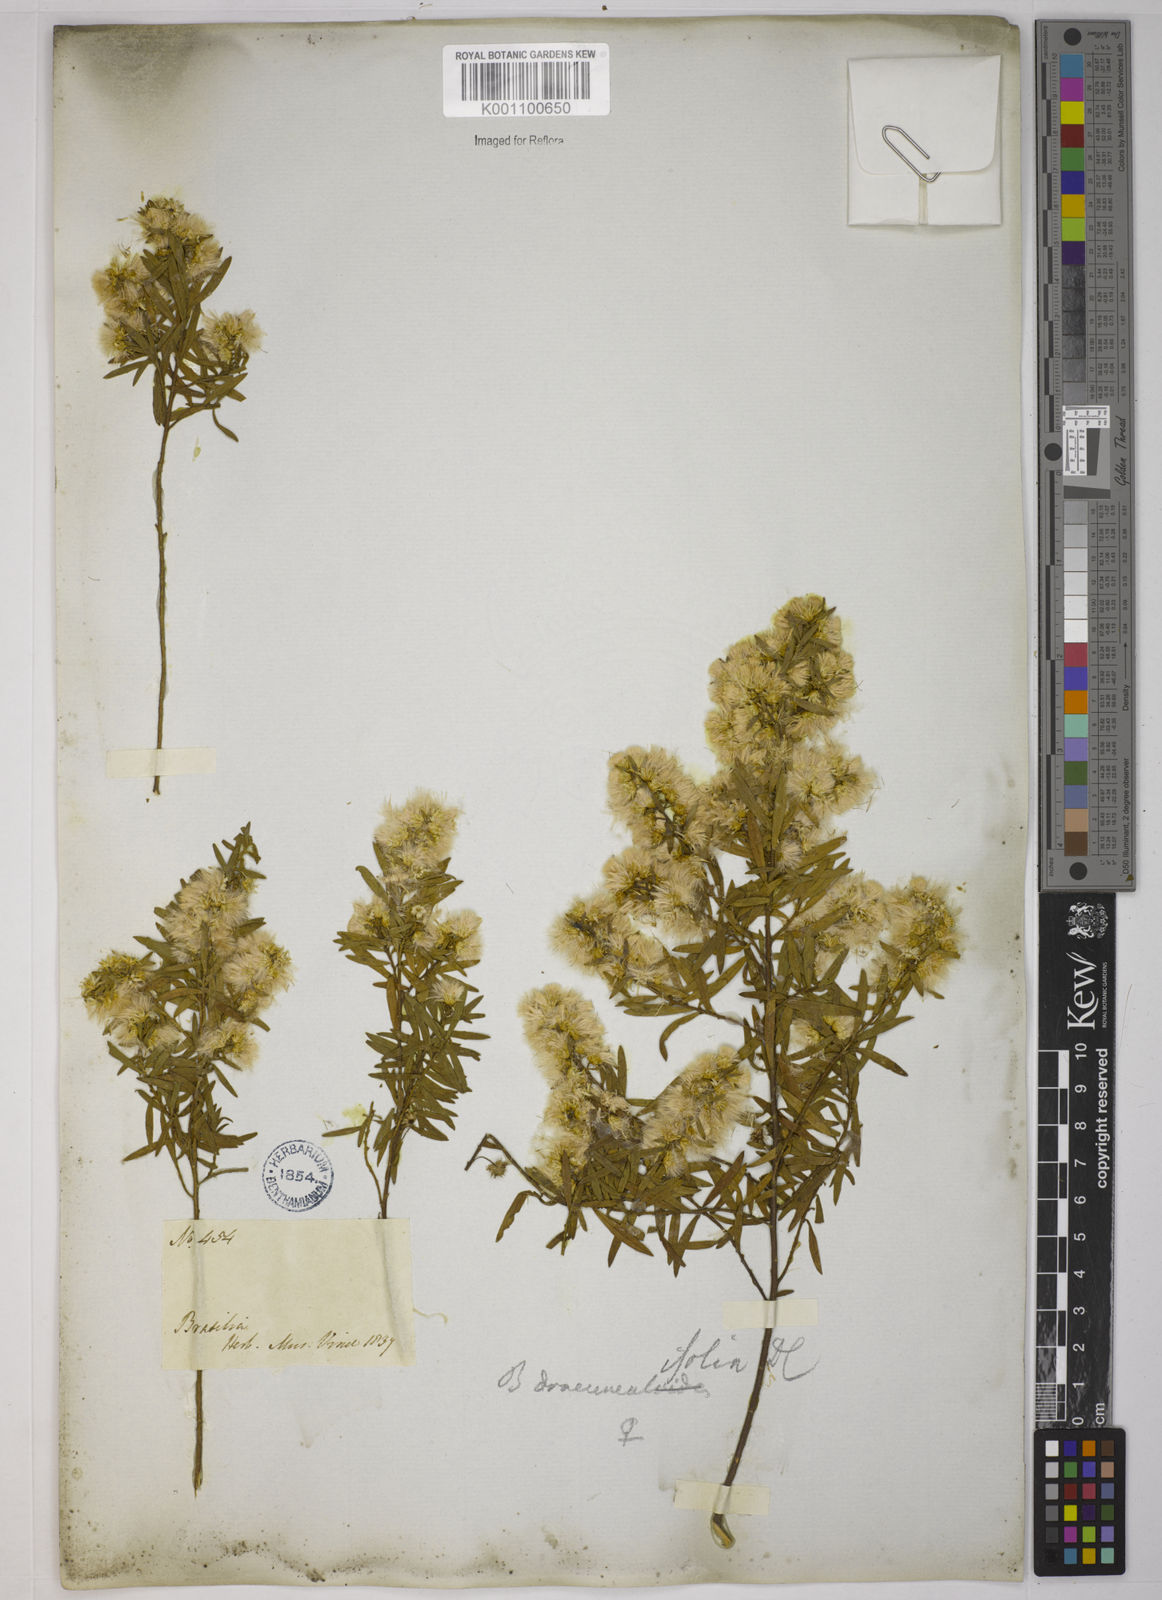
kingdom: Plantae
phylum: Tracheophyta
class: Magnoliopsida
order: Asterales
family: Asteraceae
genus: Baccharis
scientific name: Baccharis dracunculifolia
